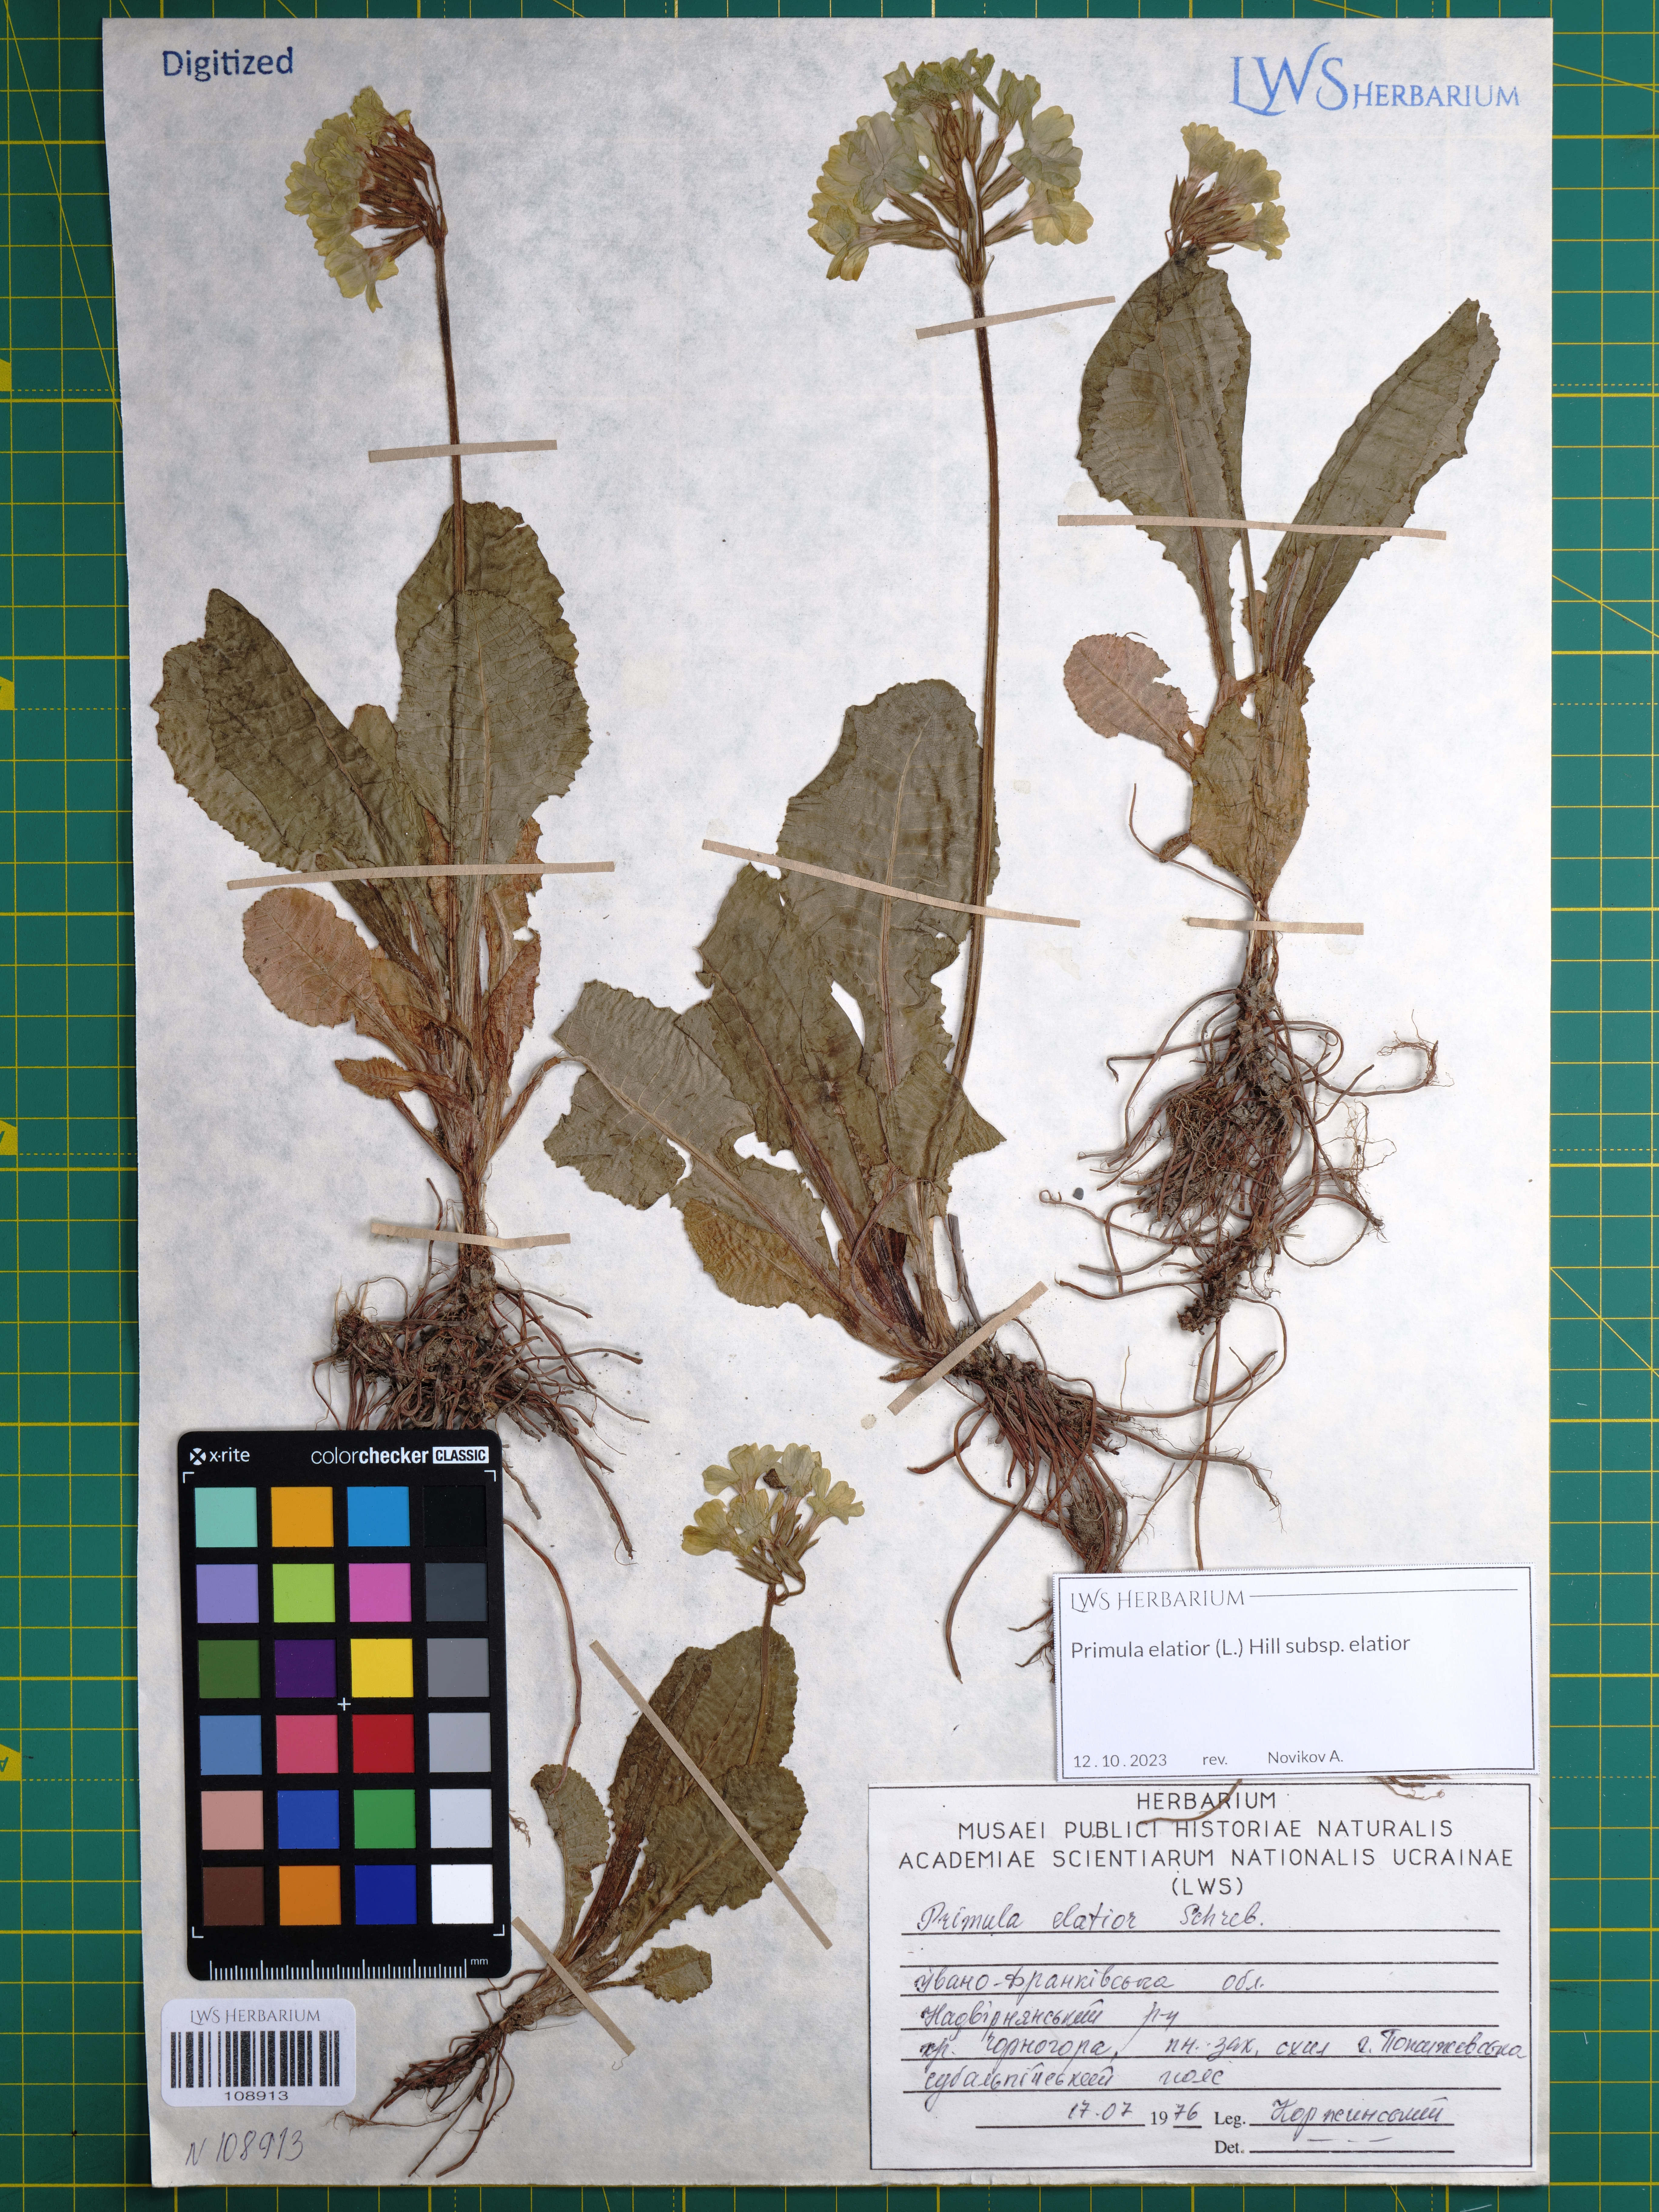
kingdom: Plantae
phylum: Tracheophyta
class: Magnoliopsida
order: Ericales
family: Primulaceae
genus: Primula
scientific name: Primula elatior
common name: Oxlip
